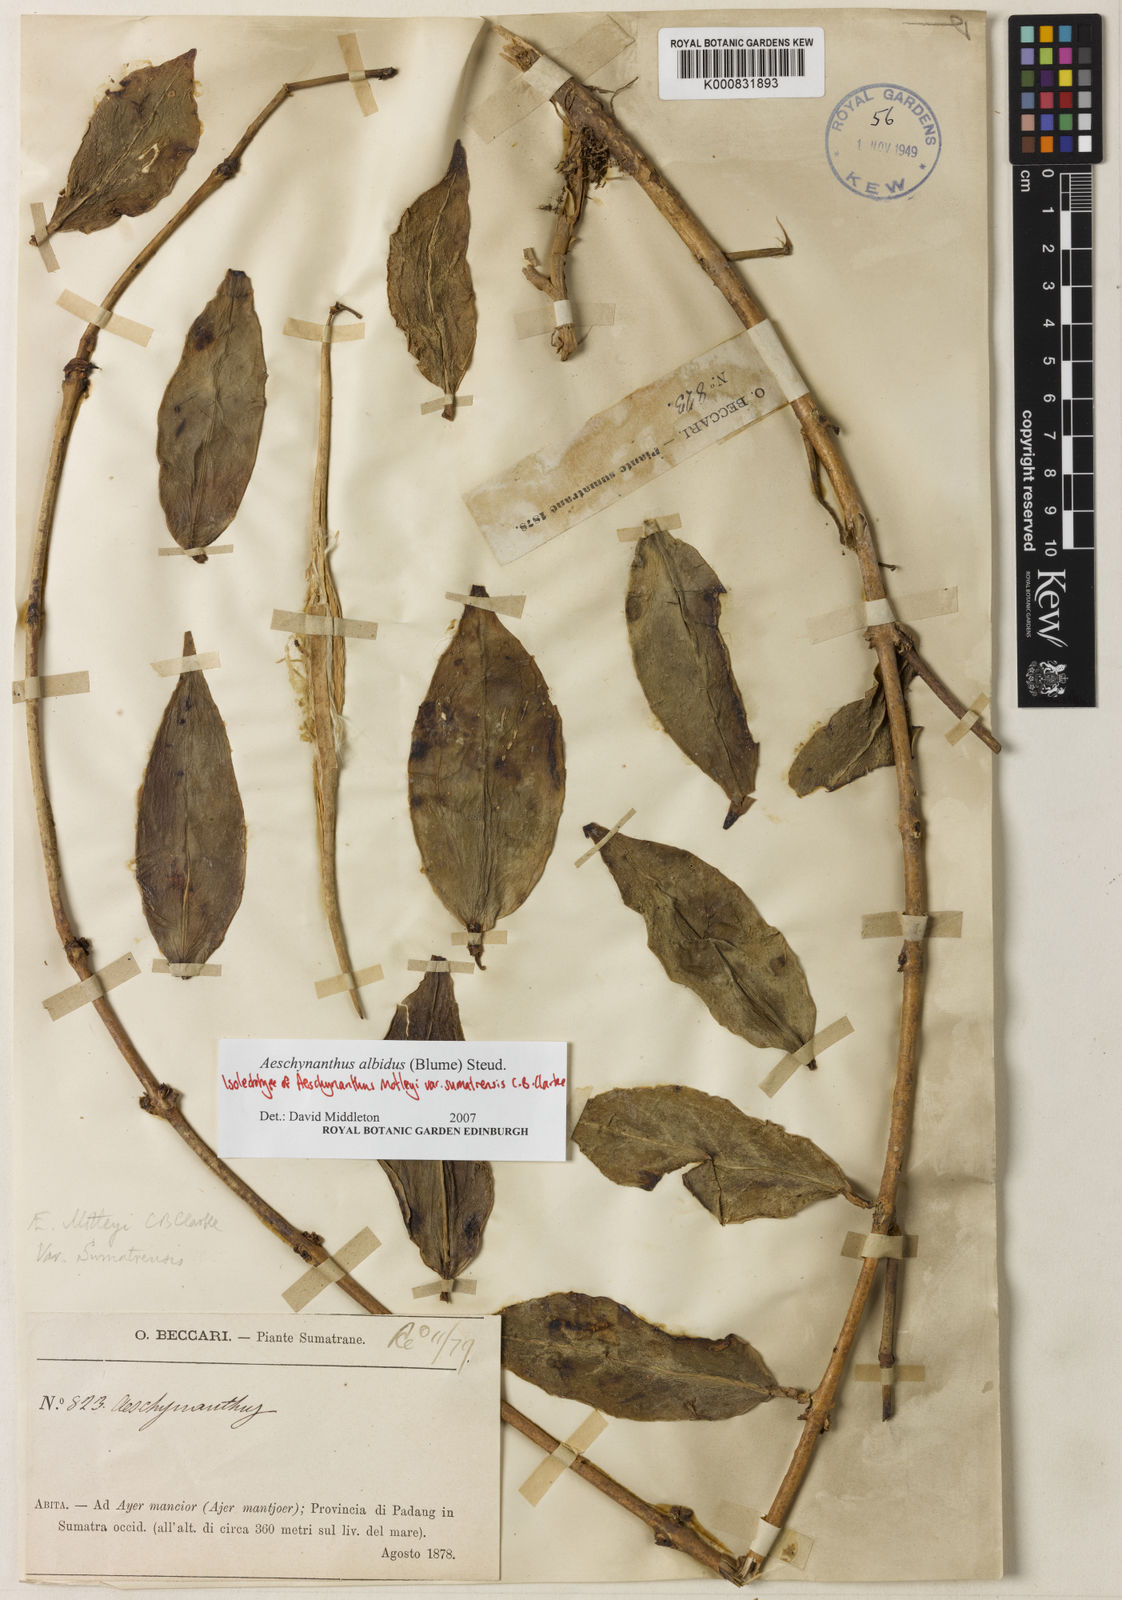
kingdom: Plantae
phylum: Tracheophyta
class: Magnoliopsida
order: Lamiales
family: Gesneriaceae
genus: Aeschynanthus
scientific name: Aeschynanthus albidus
